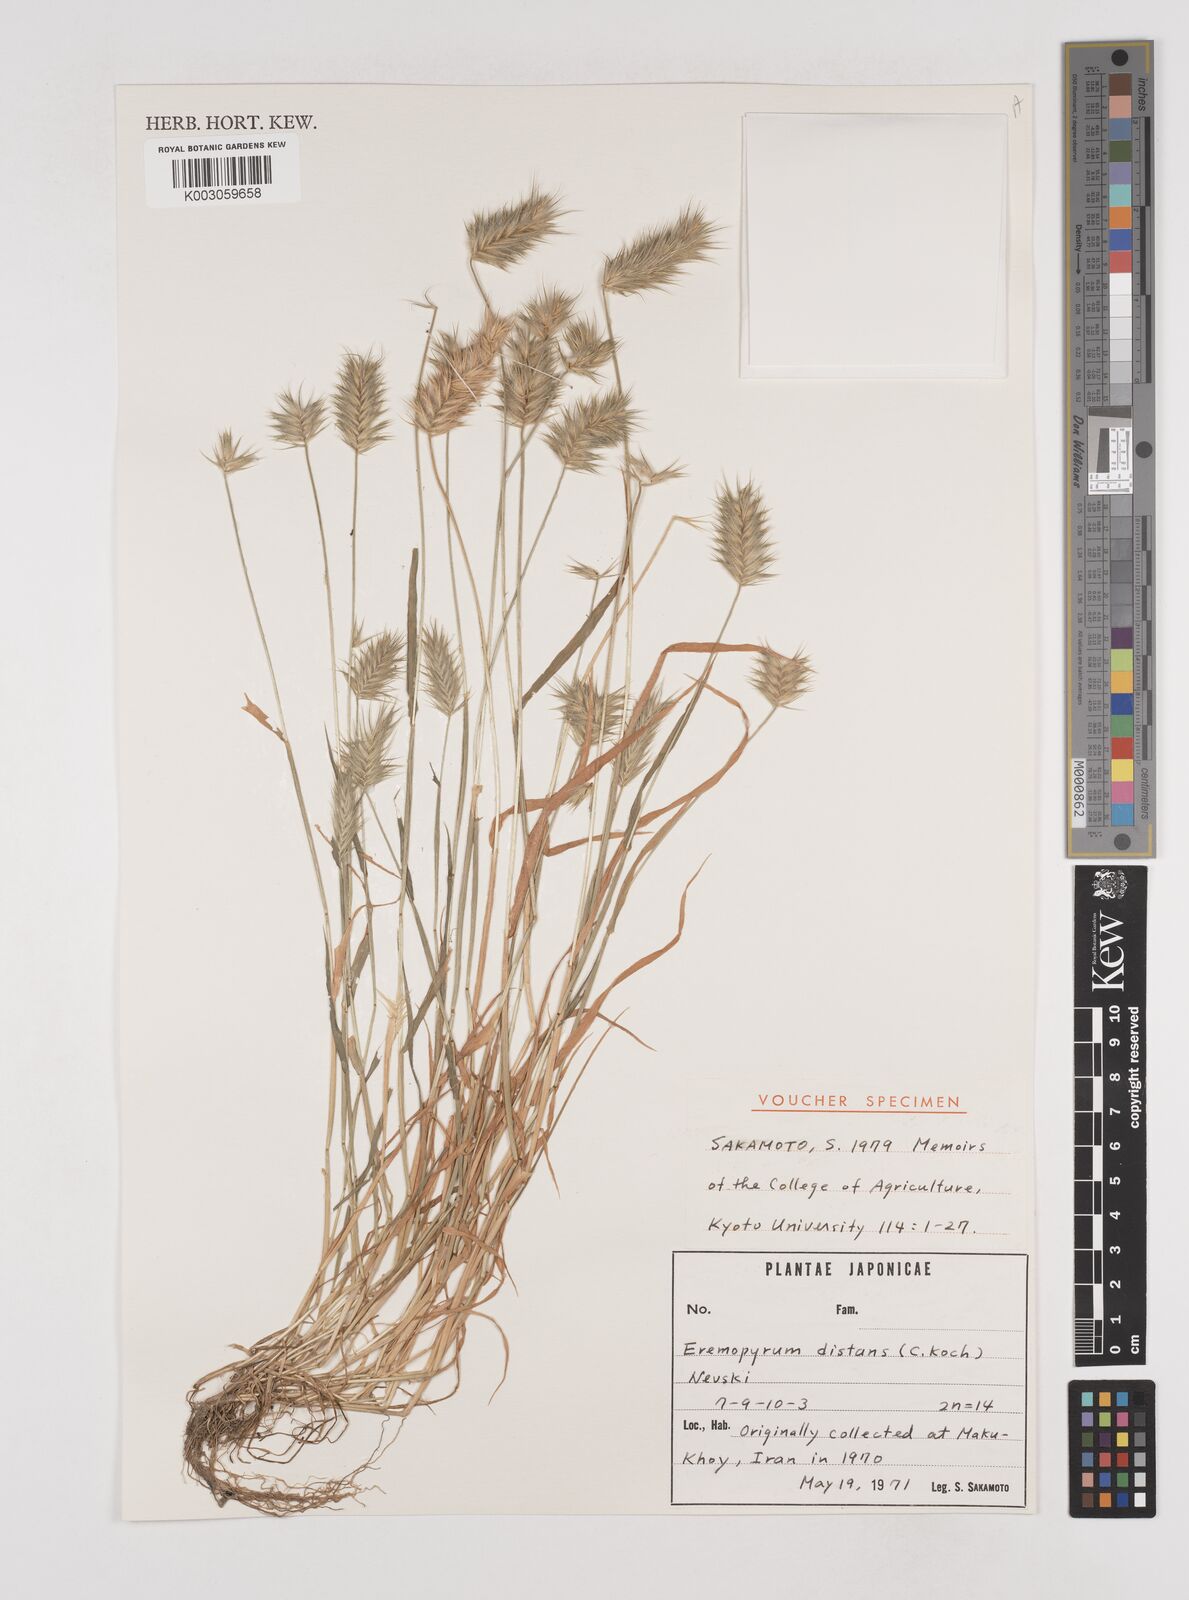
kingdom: Plantae
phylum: Tracheophyta
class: Liliopsida
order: Poales
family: Poaceae
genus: Eremopyrum
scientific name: Eremopyrum distans
